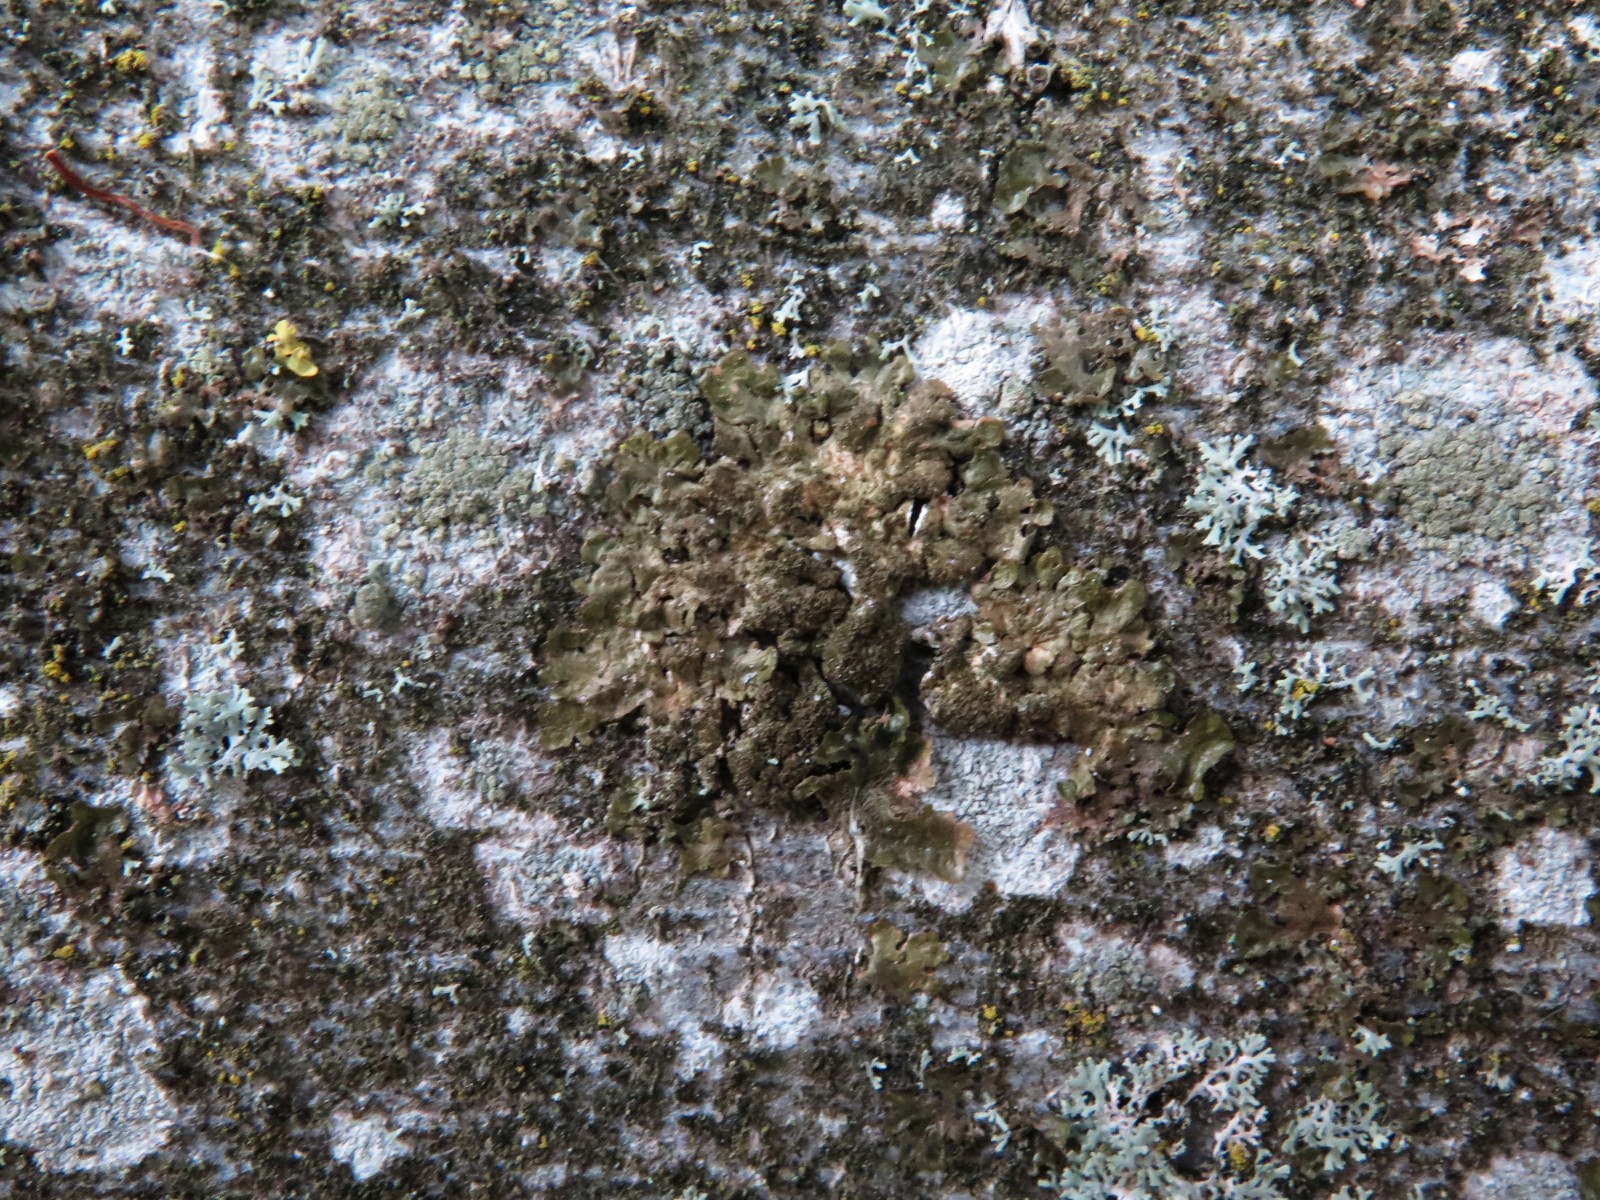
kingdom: Fungi
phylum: Ascomycota
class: Lecanoromycetes
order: Lecanorales
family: Parmeliaceae
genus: Melanelixia
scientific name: Melanelixia subaurifera
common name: guldpudret skållav
